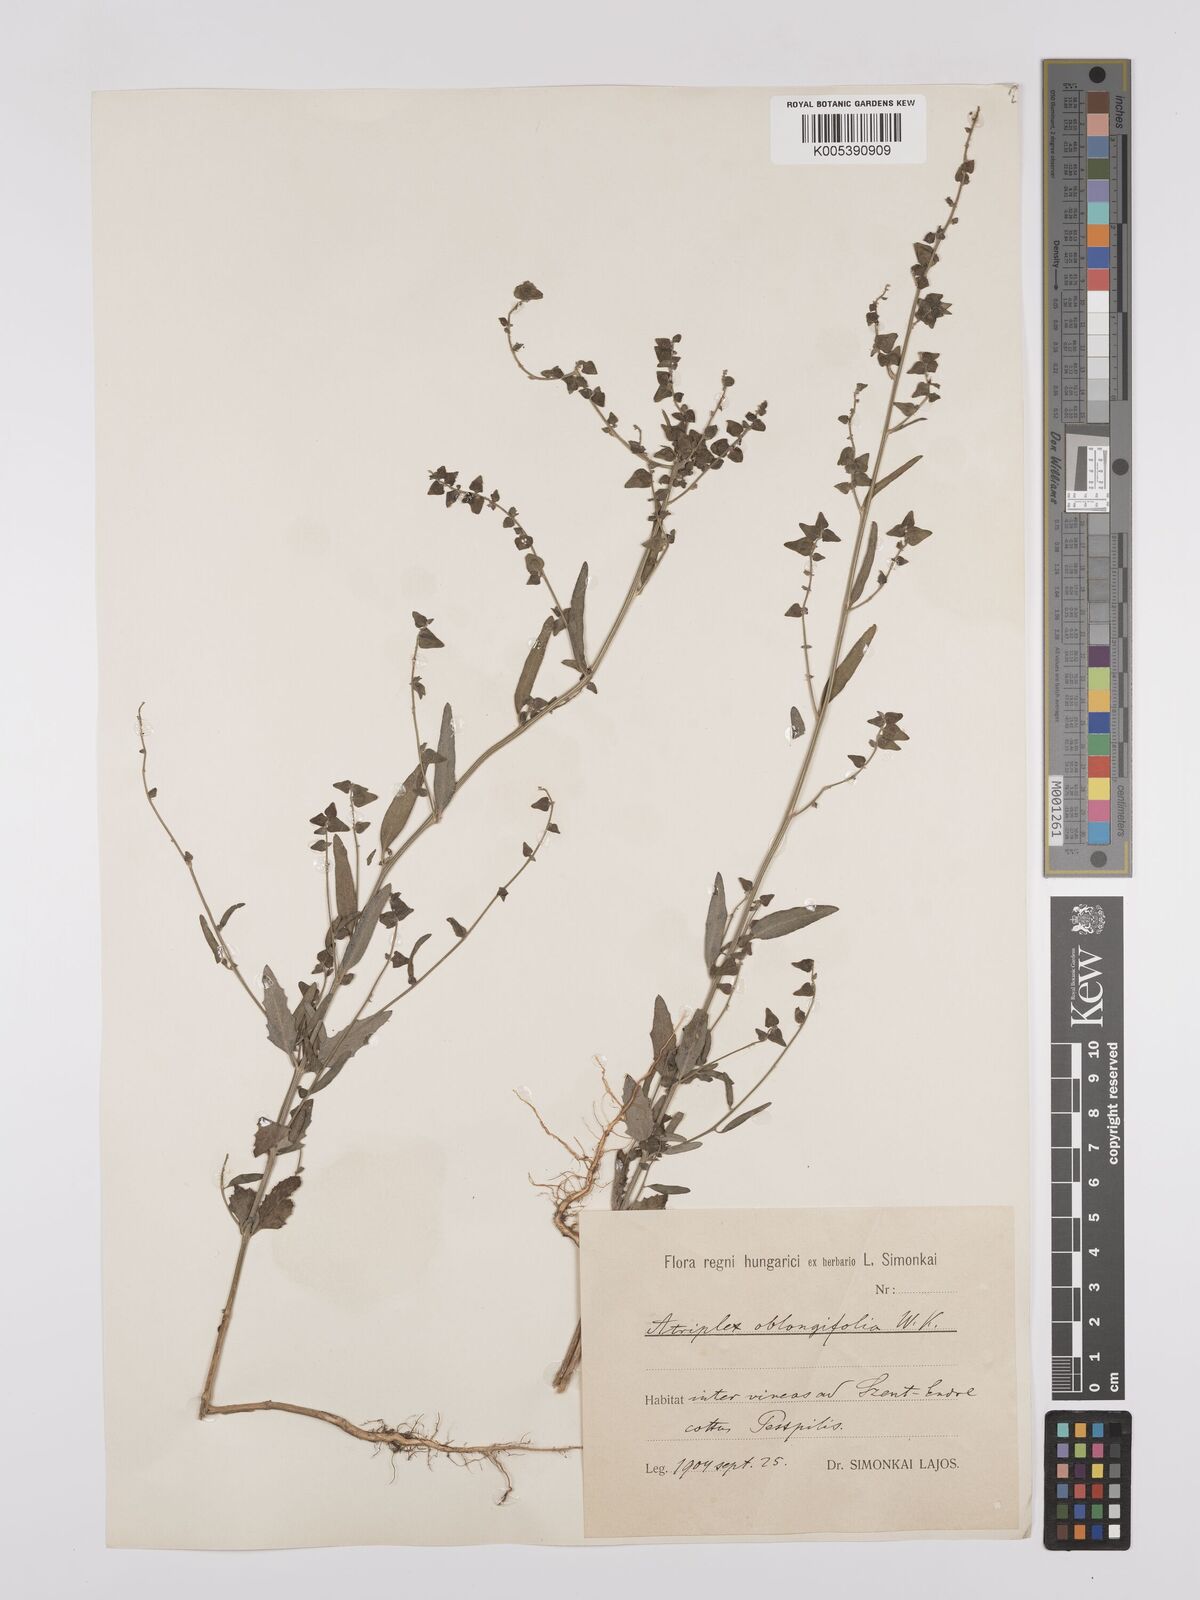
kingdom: Plantae
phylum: Tracheophyta
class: Magnoliopsida
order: Caryophyllales
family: Amaranthaceae
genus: Atriplex
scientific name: Atriplex
